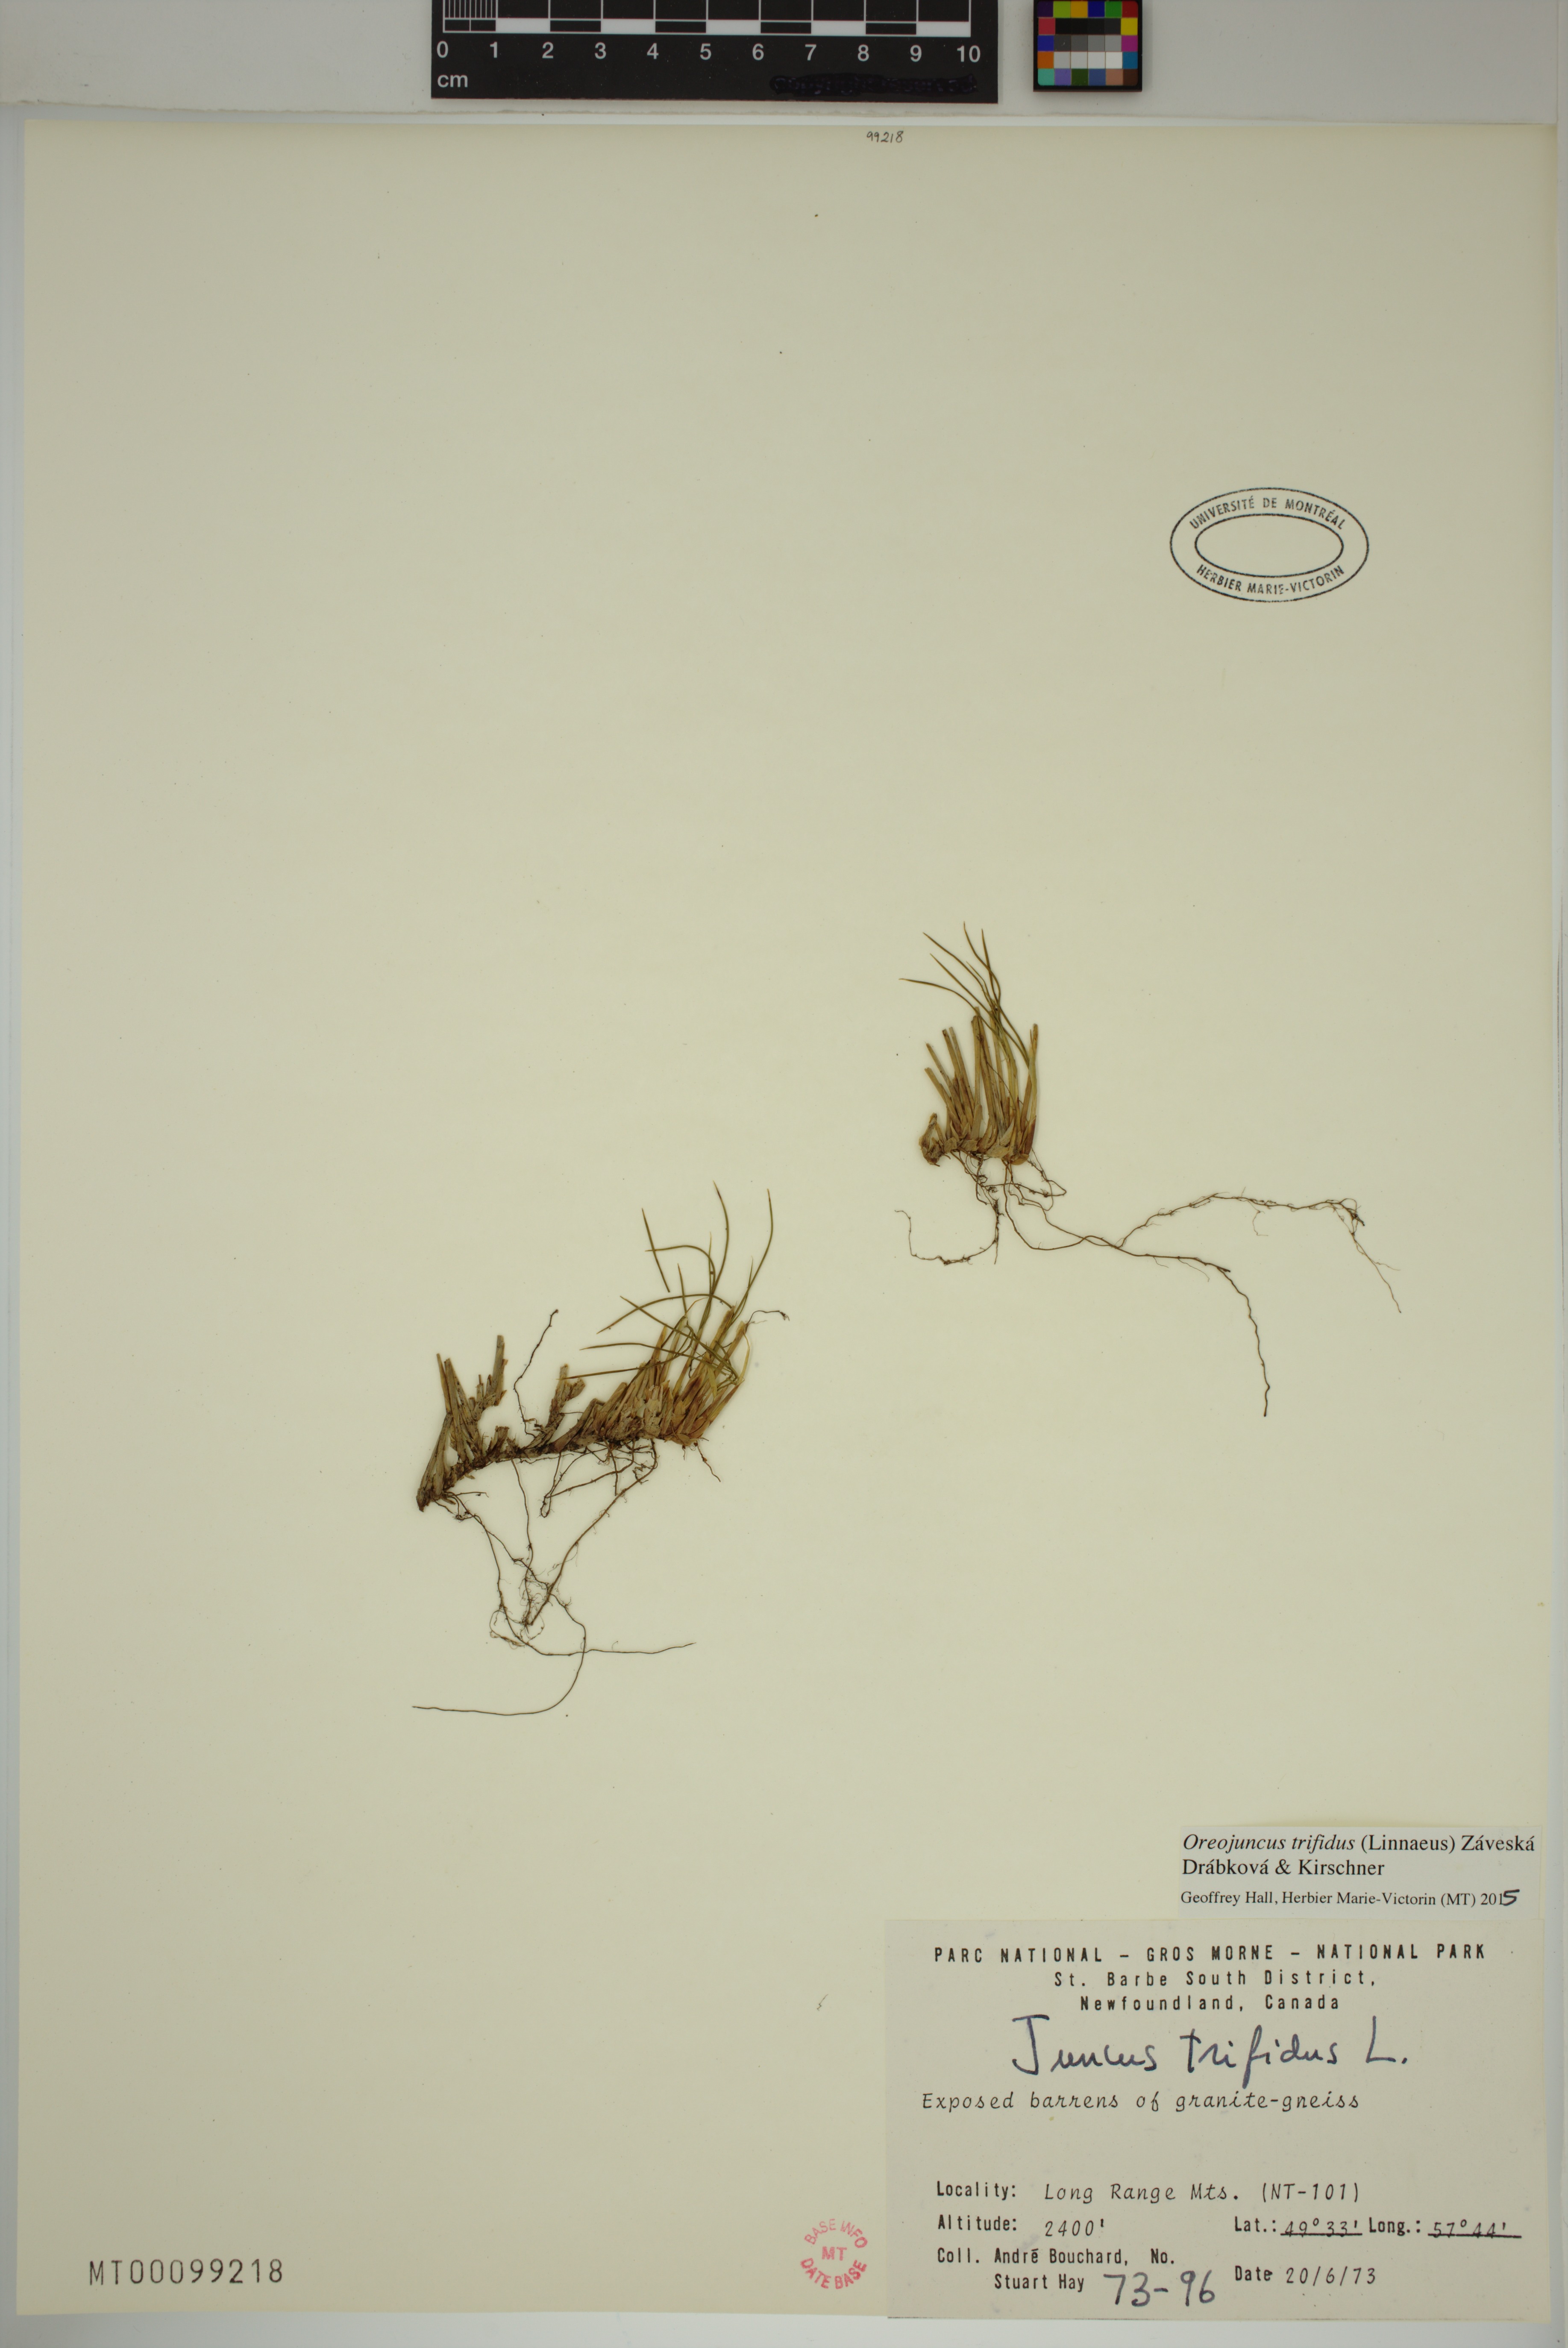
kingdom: Plantae
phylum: Tracheophyta
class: Liliopsida
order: Poales
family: Juncaceae
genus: Oreojuncus
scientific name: Oreojuncus trifidus
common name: Highland rush
